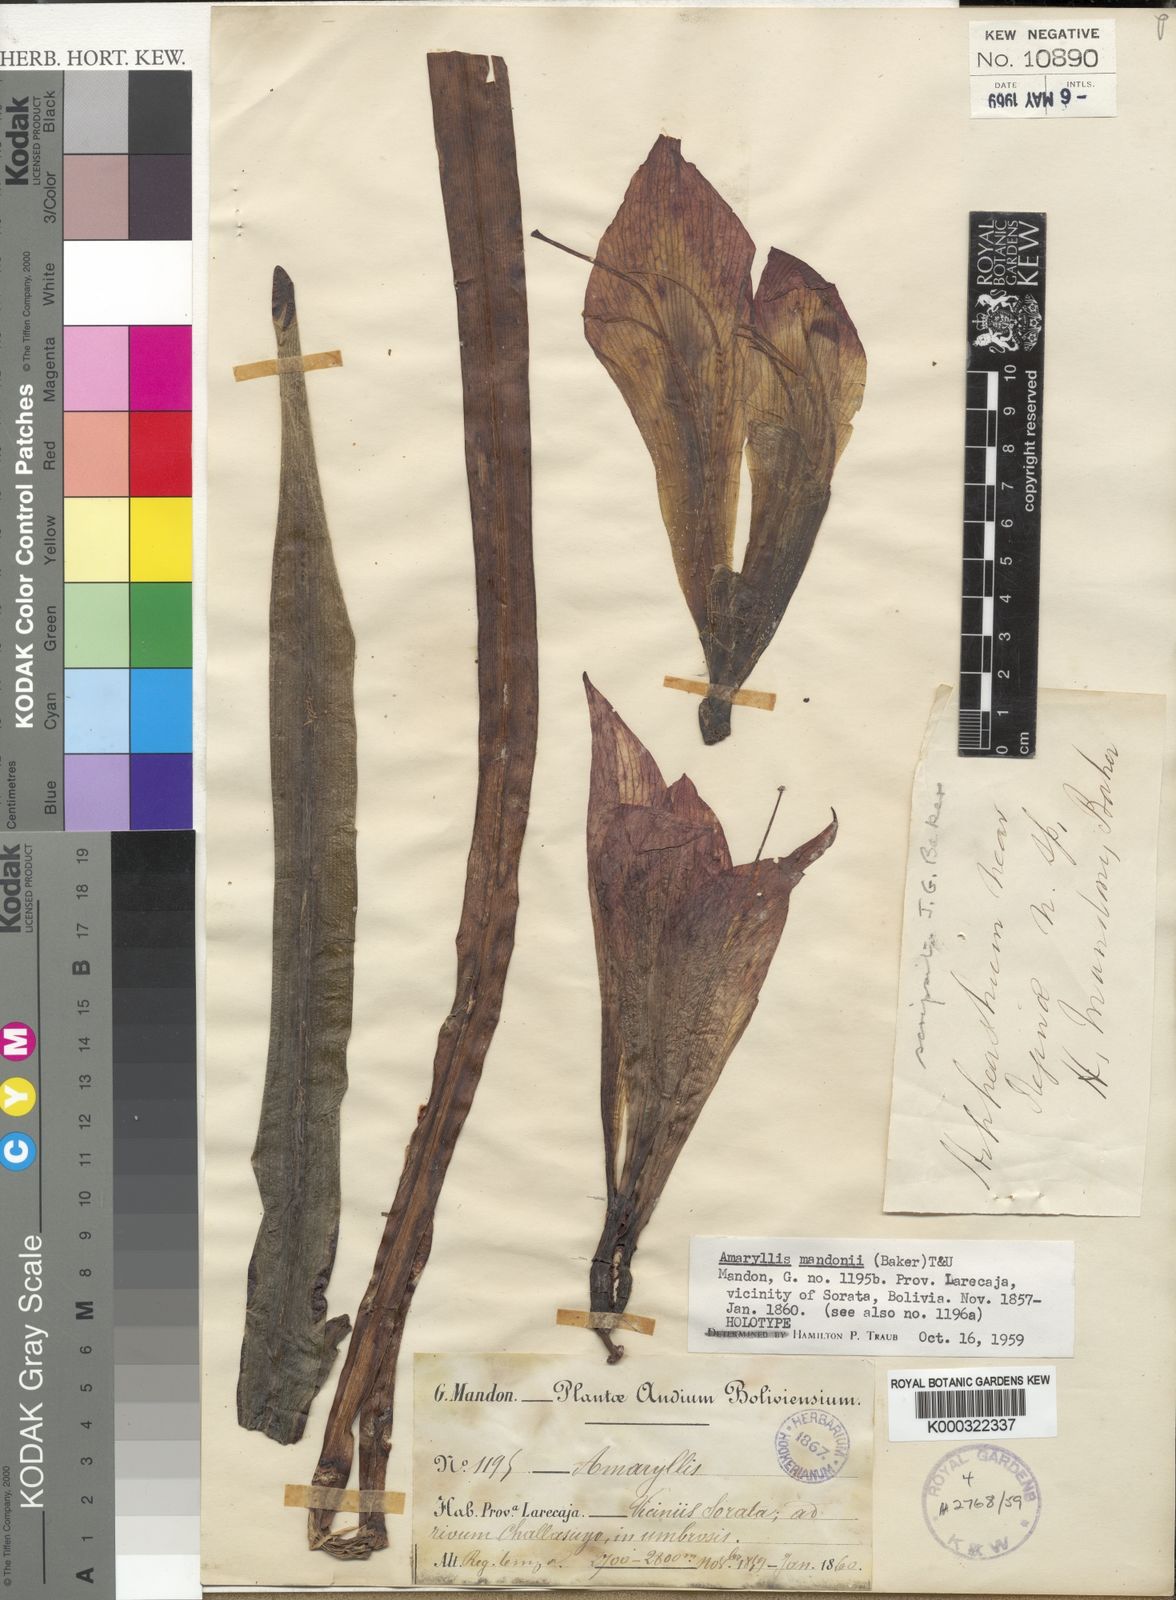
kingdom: Plantae
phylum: Tracheophyta
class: Liliopsida
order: Asparagales
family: Amaryllidaceae
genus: Amaryllis
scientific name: Amaryllis
